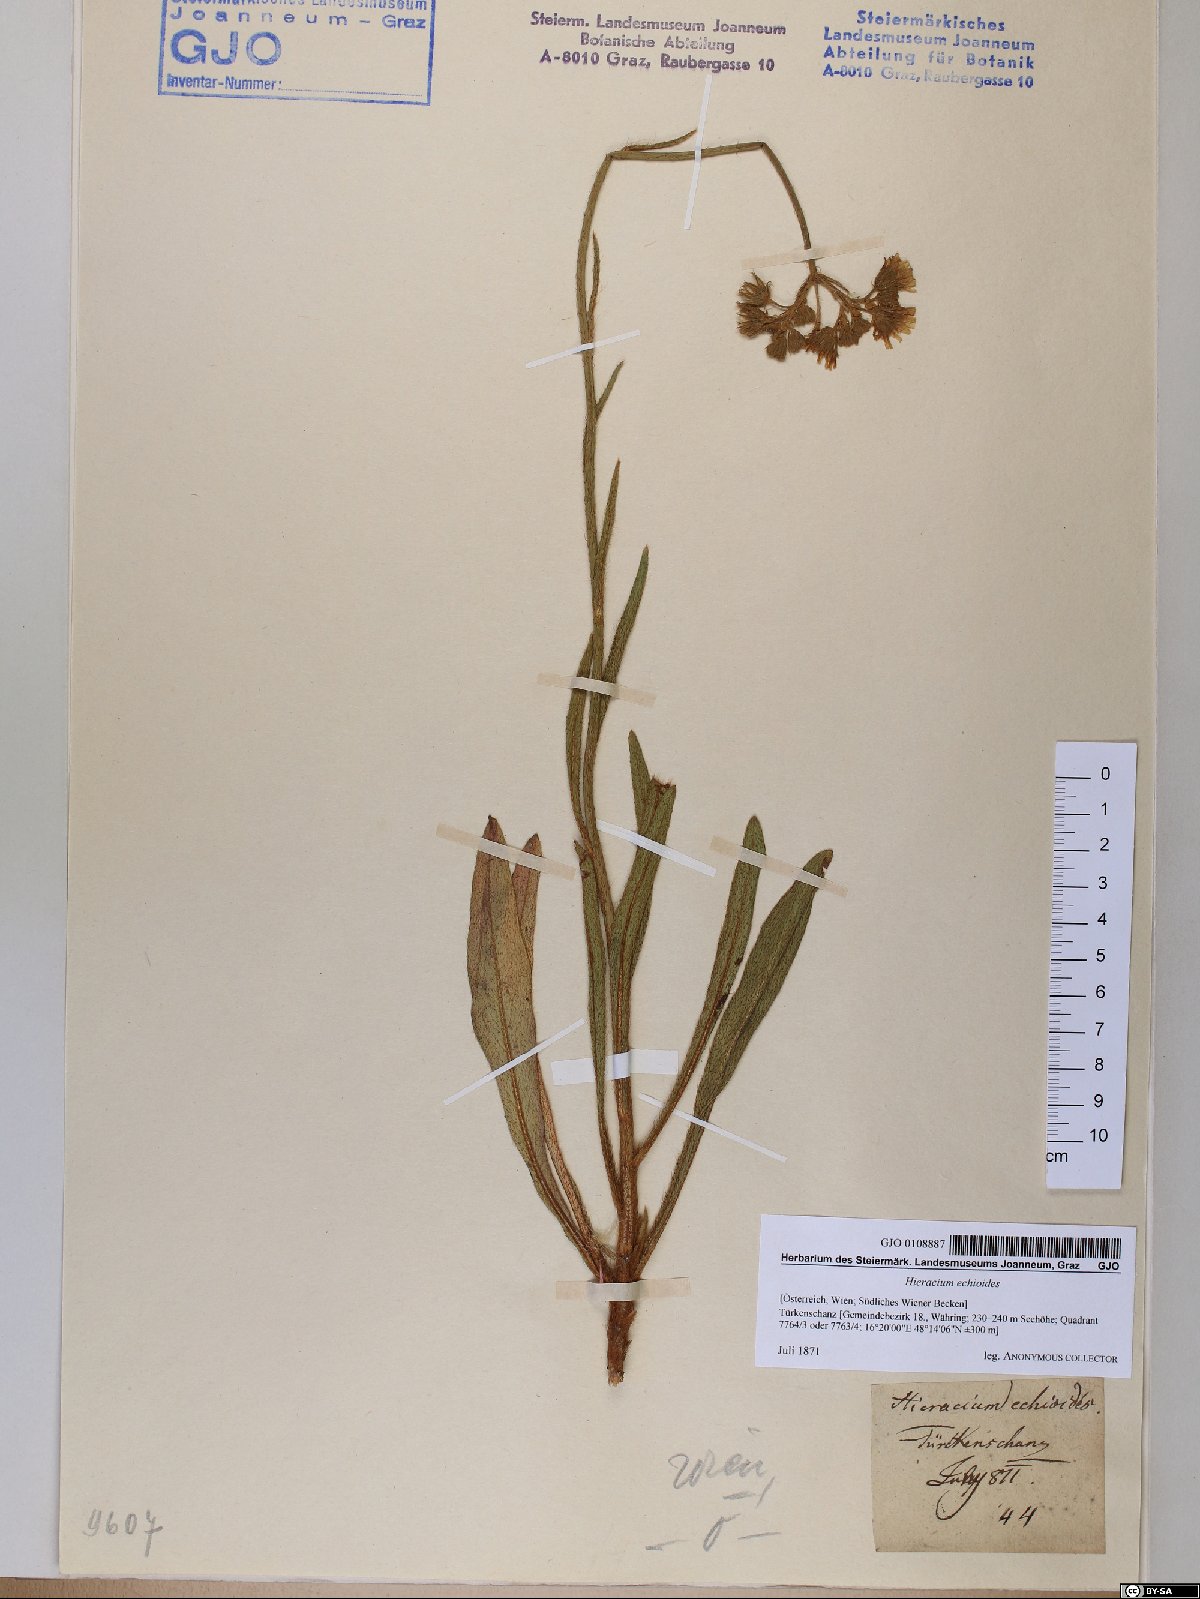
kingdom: Plantae
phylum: Tracheophyta
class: Magnoliopsida
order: Asterales
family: Asteraceae
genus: Pilosella
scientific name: Pilosella echioides
